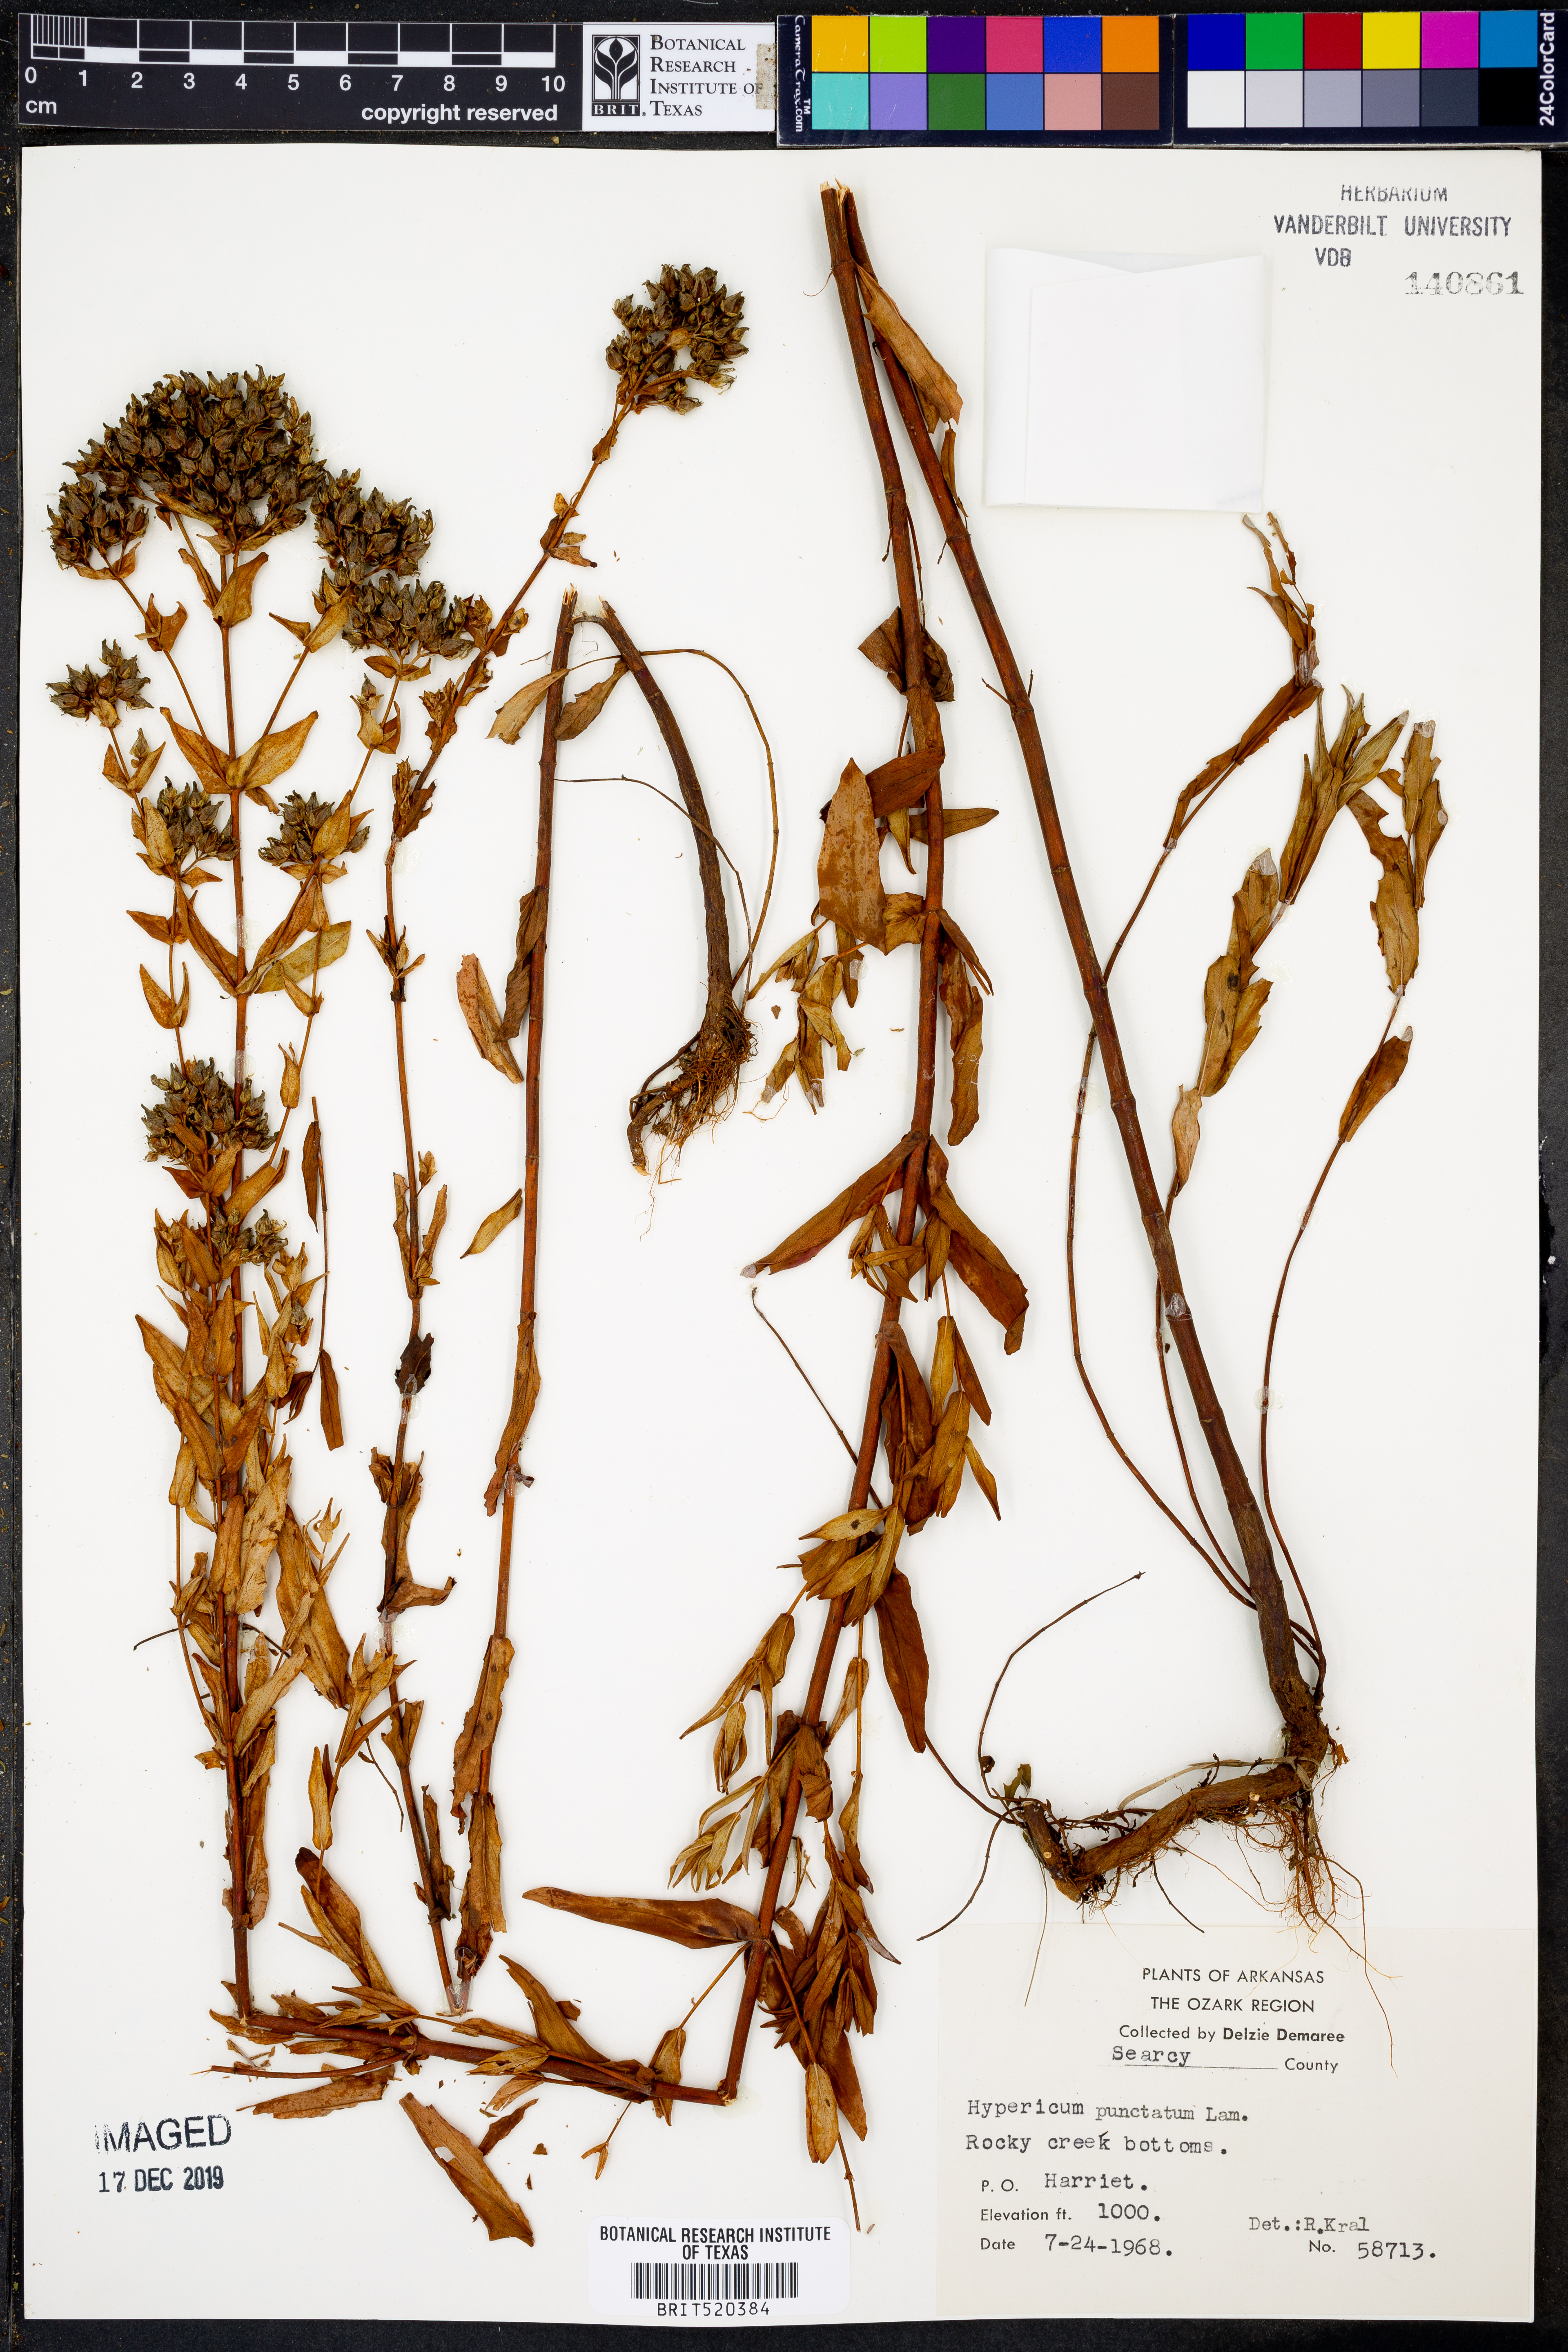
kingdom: Plantae
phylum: Tracheophyta
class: Magnoliopsida
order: Malpighiales
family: Hypericaceae
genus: Hypericum
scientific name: Hypericum punctatum
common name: Spotted st. john's-wort
